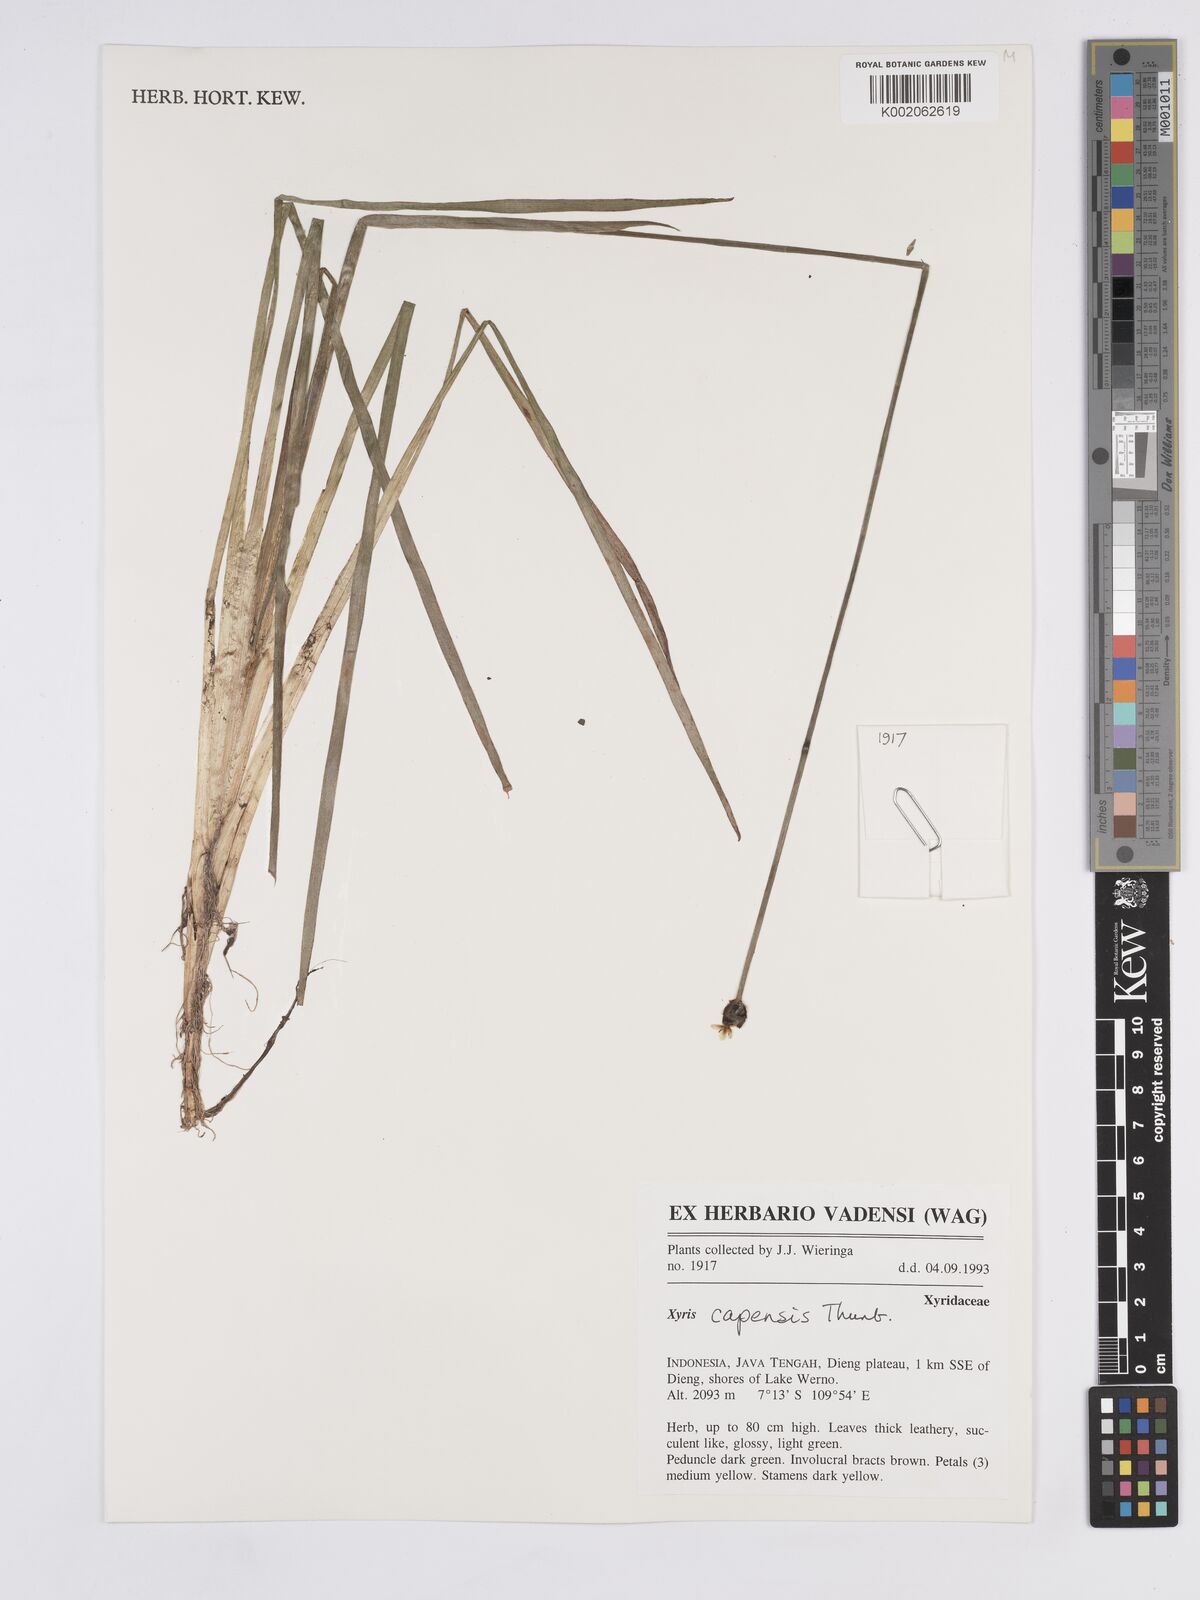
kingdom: Plantae
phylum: Tracheophyta
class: Liliopsida
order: Poales
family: Xyridaceae
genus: Xyris
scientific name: Xyris capensis
